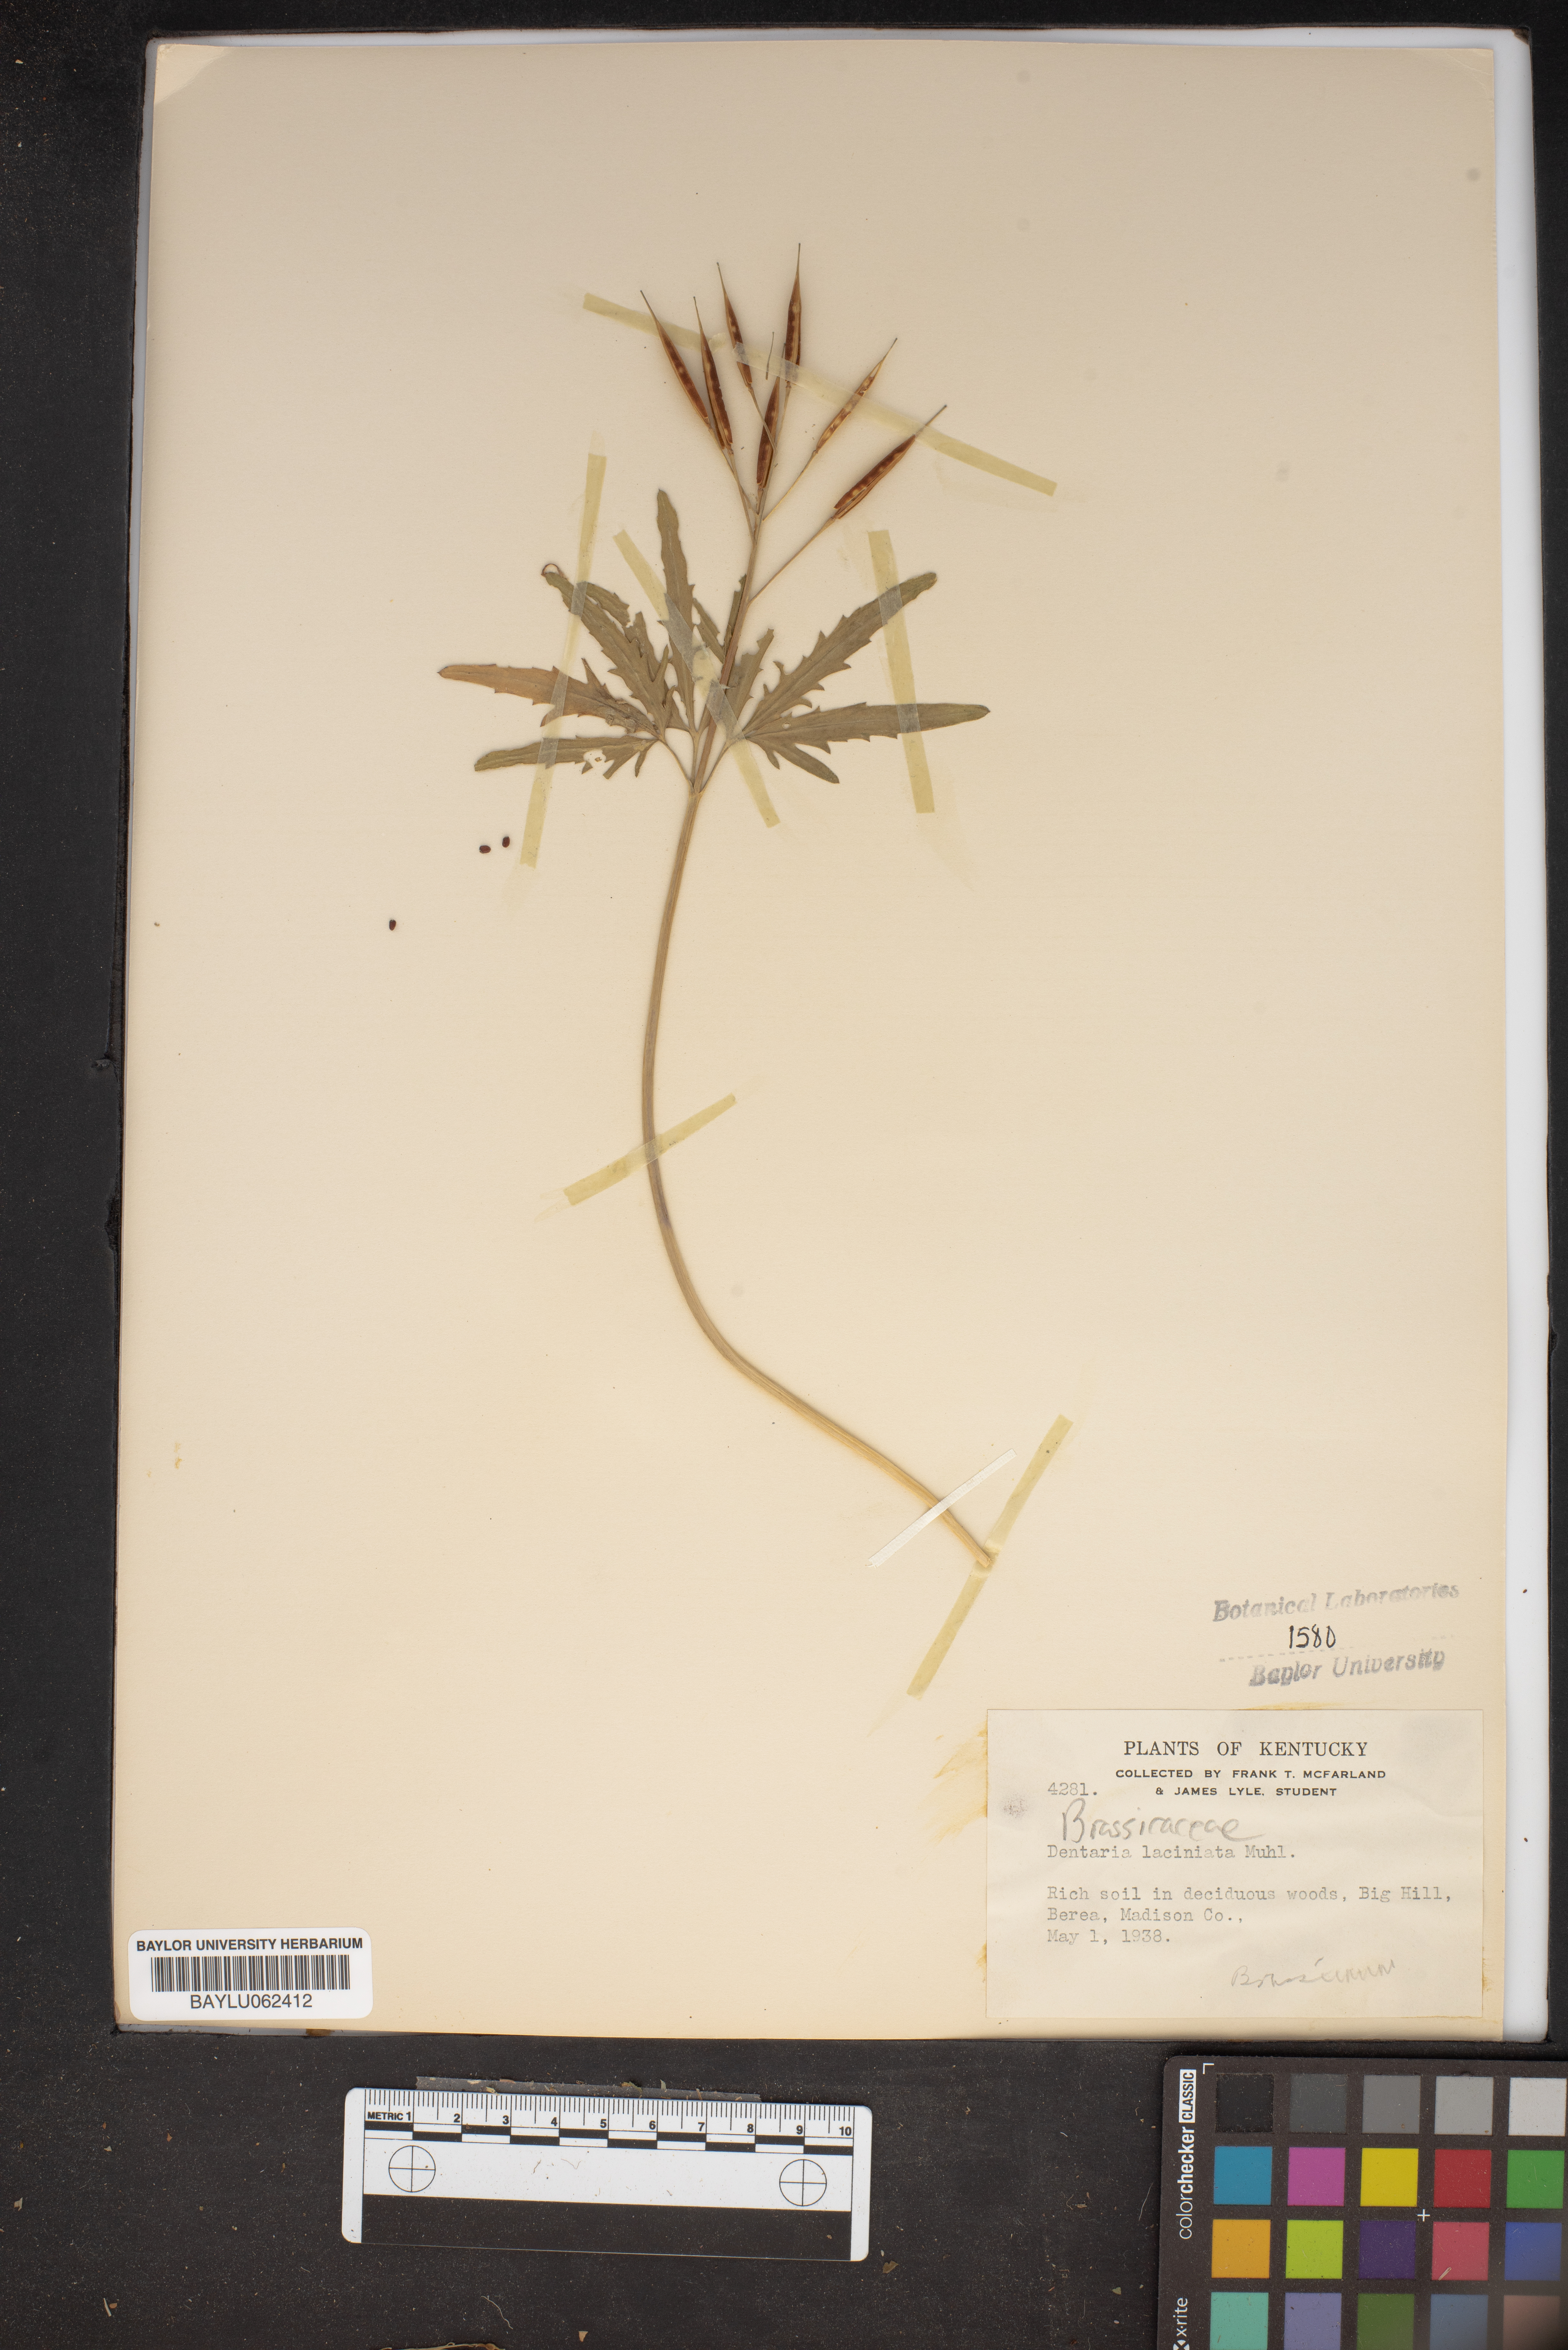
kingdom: Plantae
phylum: Tracheophyta
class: Magnoliopsida
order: Brassicales
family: Brassicaceae
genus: Cardamine
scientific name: Cardamine concatenata
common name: Cut-leaf toothcup
